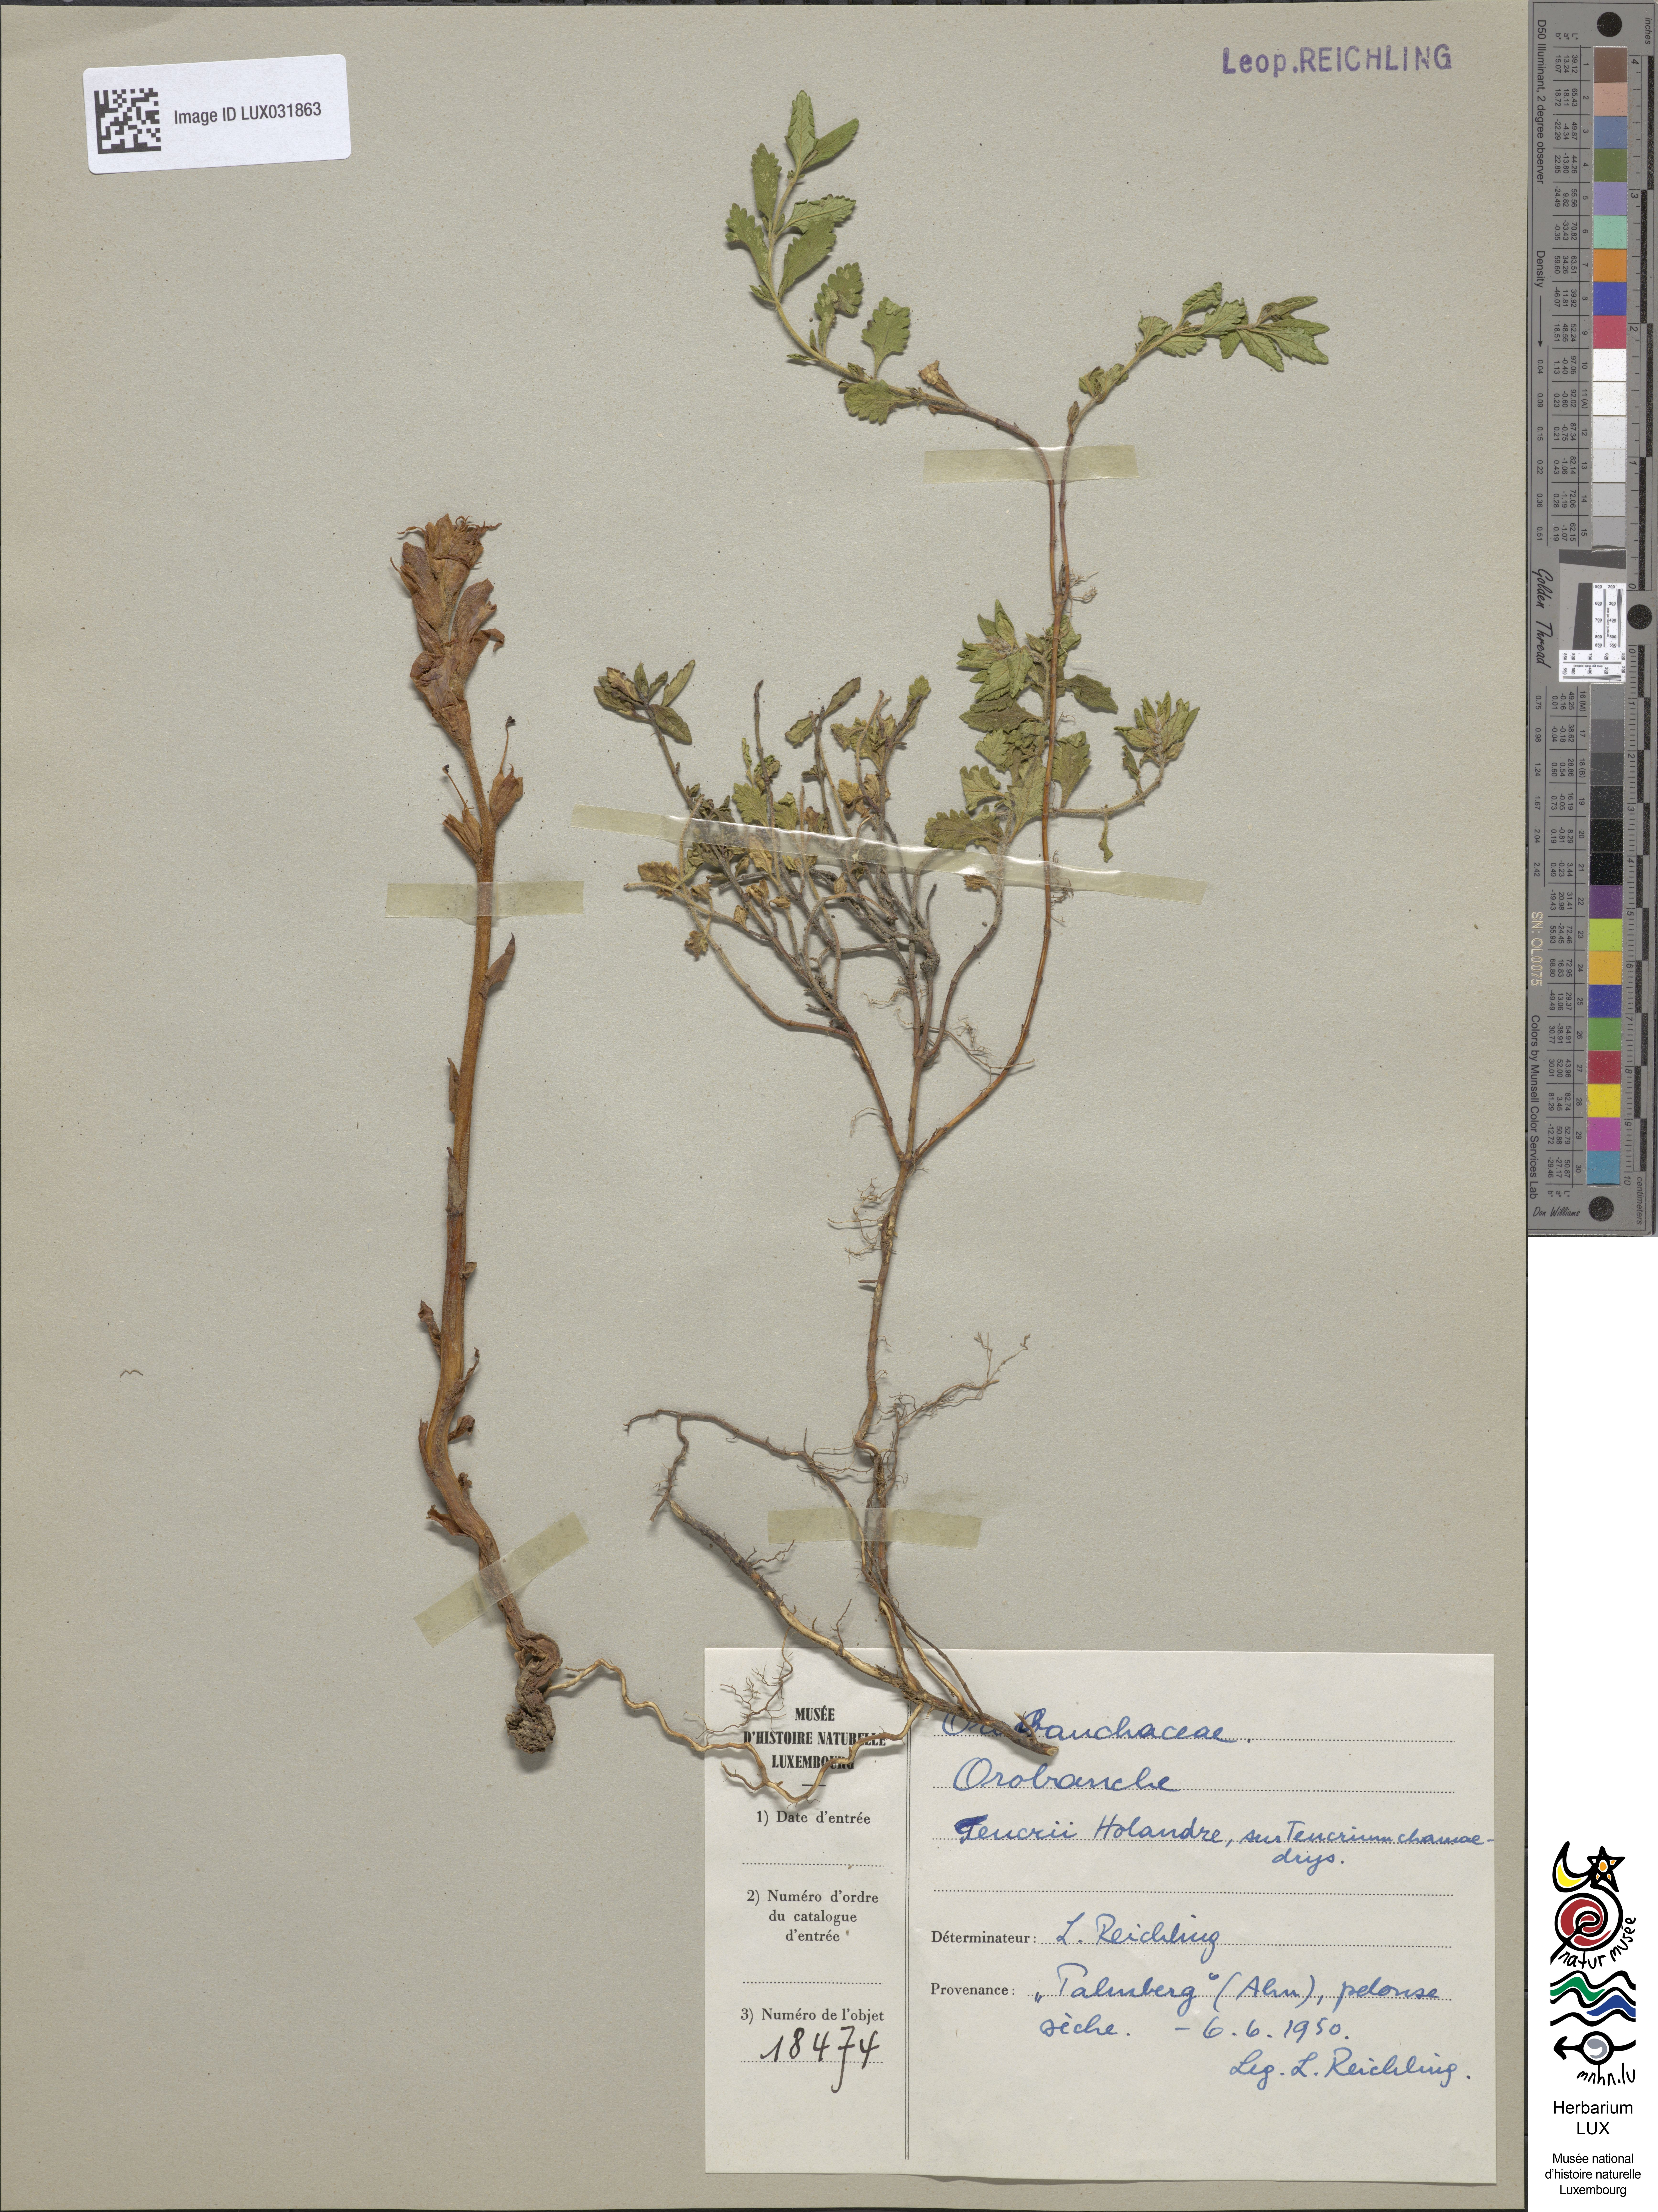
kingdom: Plantae
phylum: Tracheophyta
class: Magnoliopsida
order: Lamiales
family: Orobanchaceae
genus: Orobanche
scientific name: Orobanche teucrii
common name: Germander broomrape
